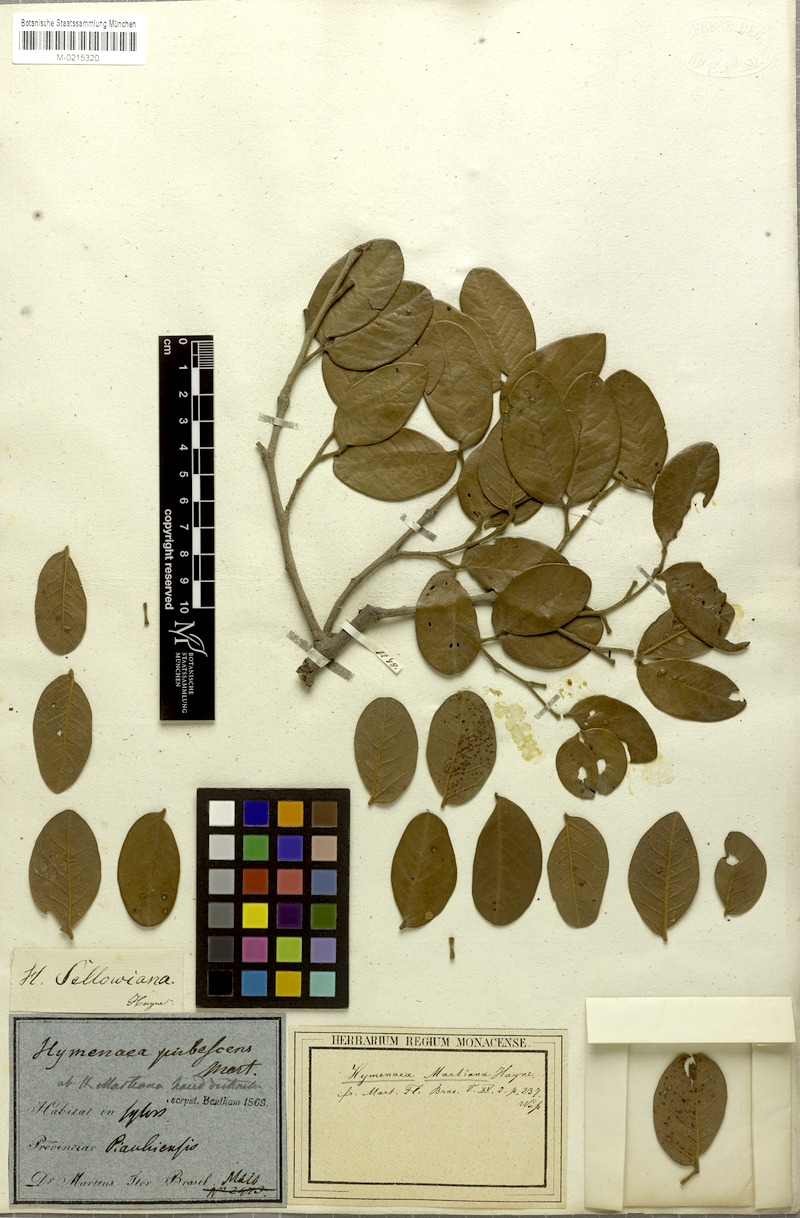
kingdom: Plantae
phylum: Tracheophyta
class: Magnoliopsida
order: Fabales
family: Fabaceae
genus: Hymenaea
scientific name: Hymenaea martiana
